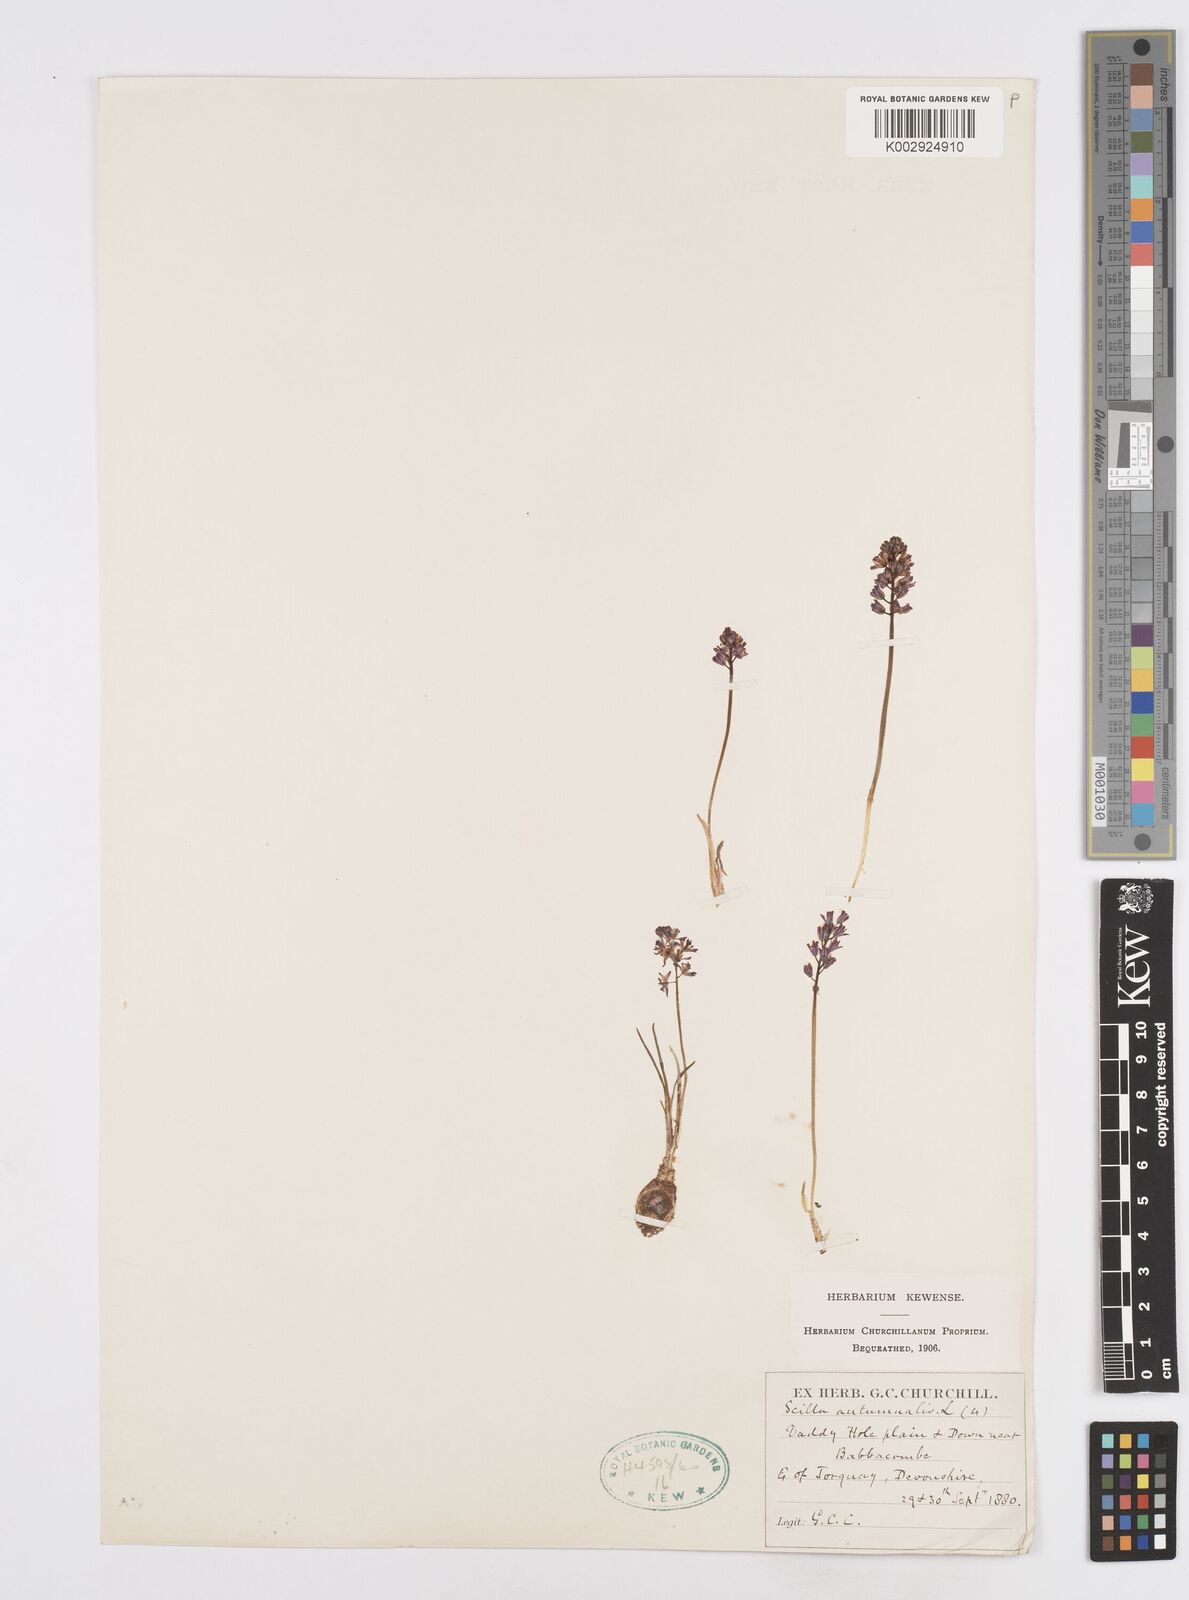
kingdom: Plantae
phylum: Tracheophyta
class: Liliopsida
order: Asparagales
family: Asparagaceae
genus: Prospero
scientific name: Prospero autumnale
